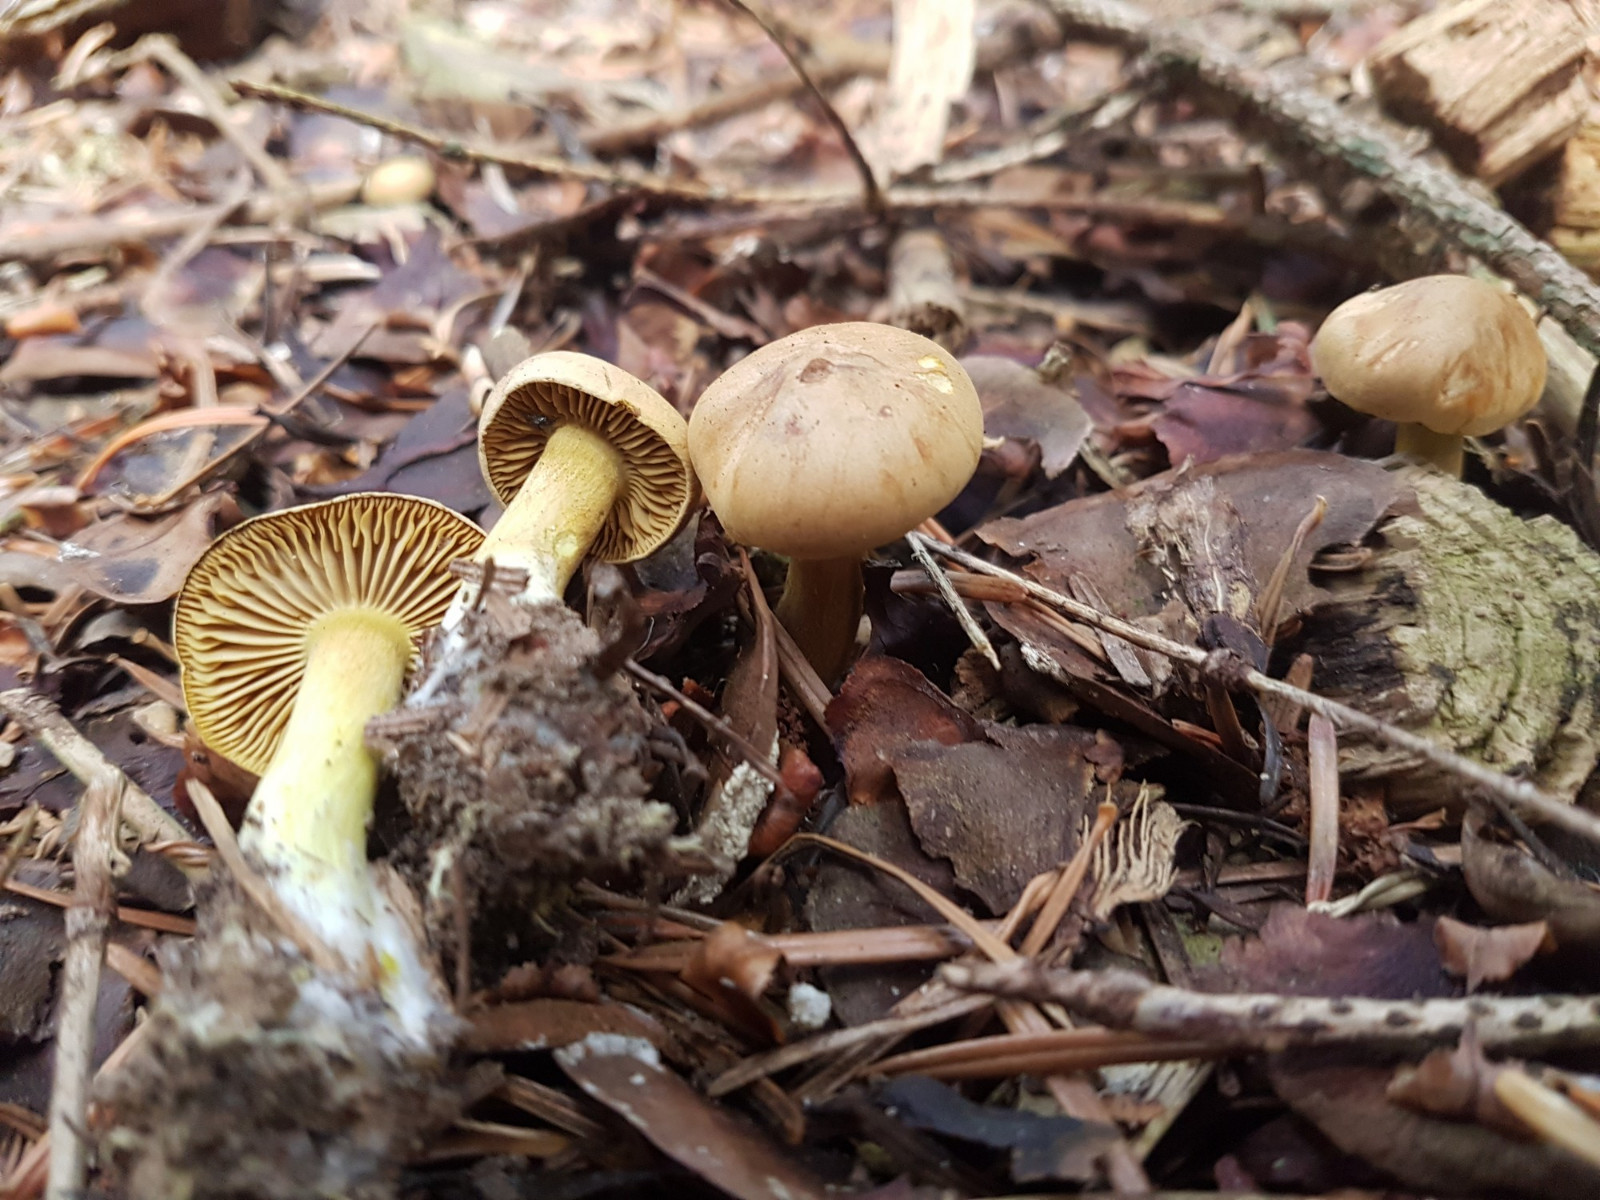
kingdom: Fungi
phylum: Basidiomycota
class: Agaricomycetes
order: Agaricales
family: Tricholomataceae
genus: Tricholoma
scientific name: Tricholoma sulphureum
